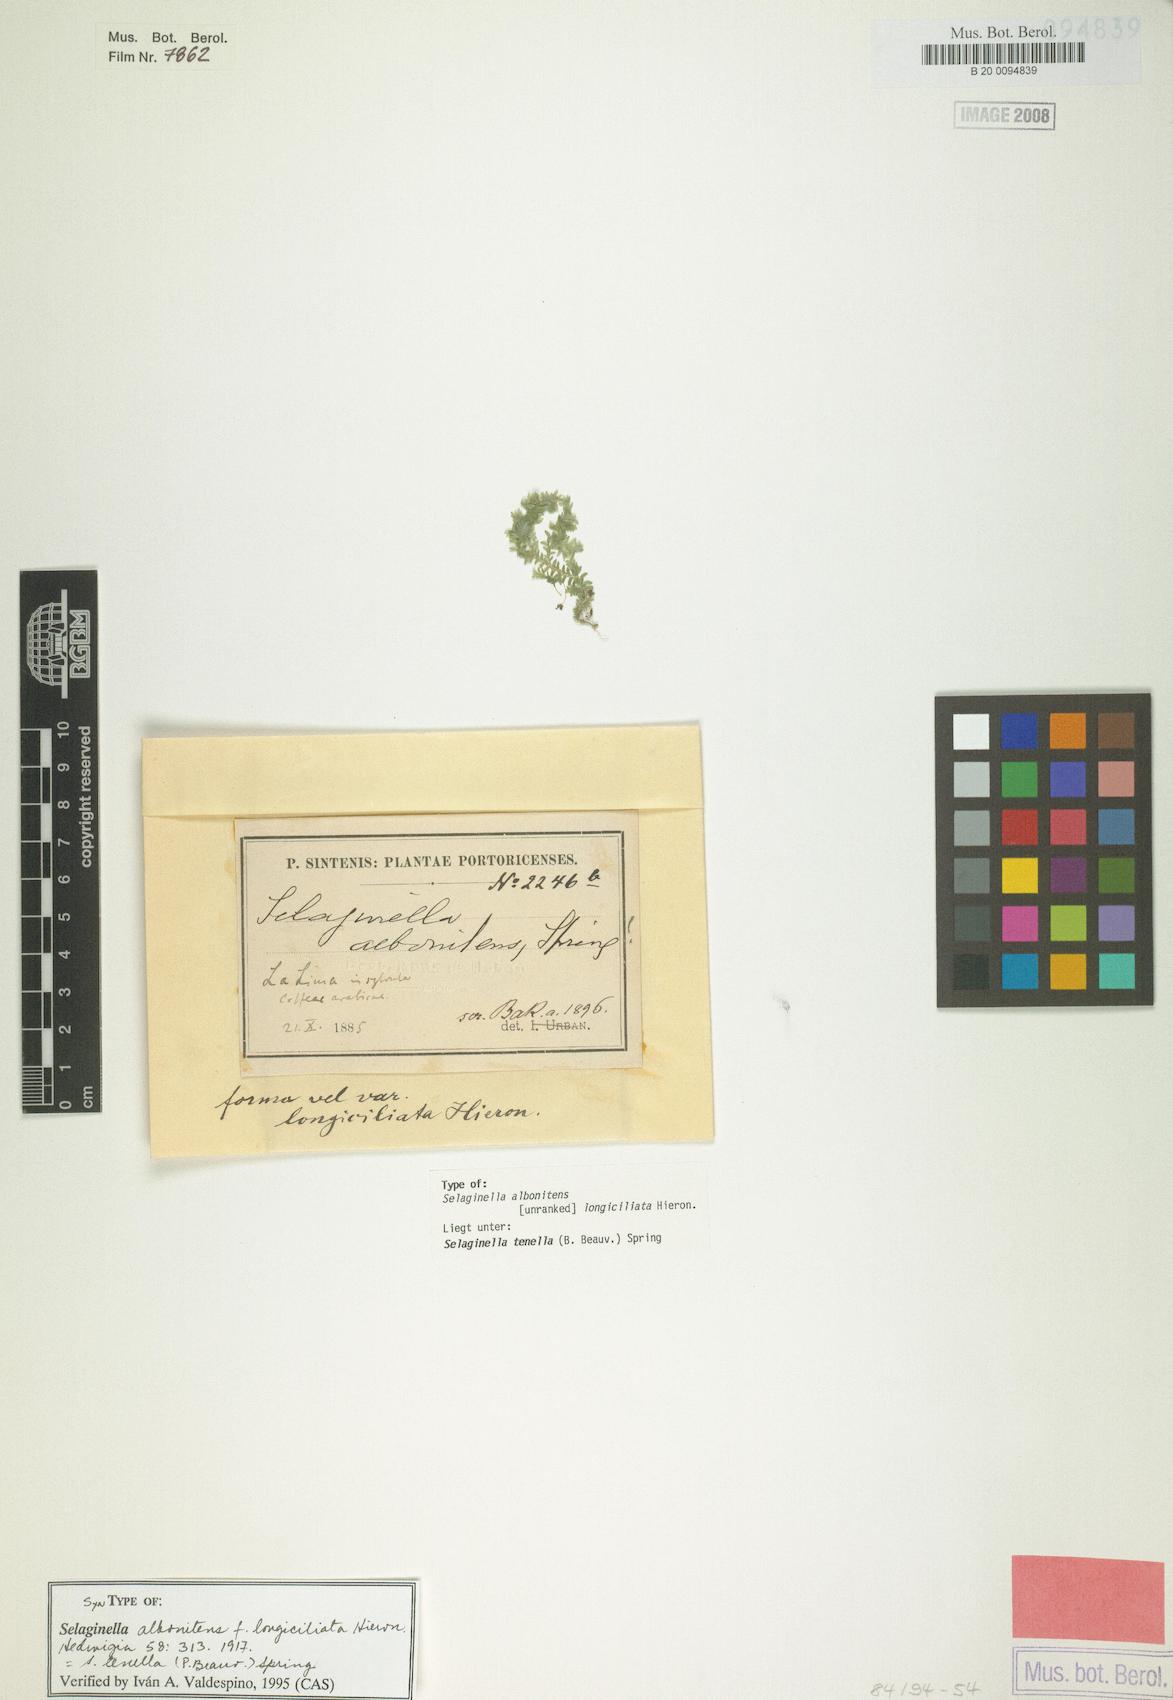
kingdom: Plantae
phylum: Tracheophyta
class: Lycopodiopsida
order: Selaginellales
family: Selaginellaceae
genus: Selaginella
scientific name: Selaginella tenella
